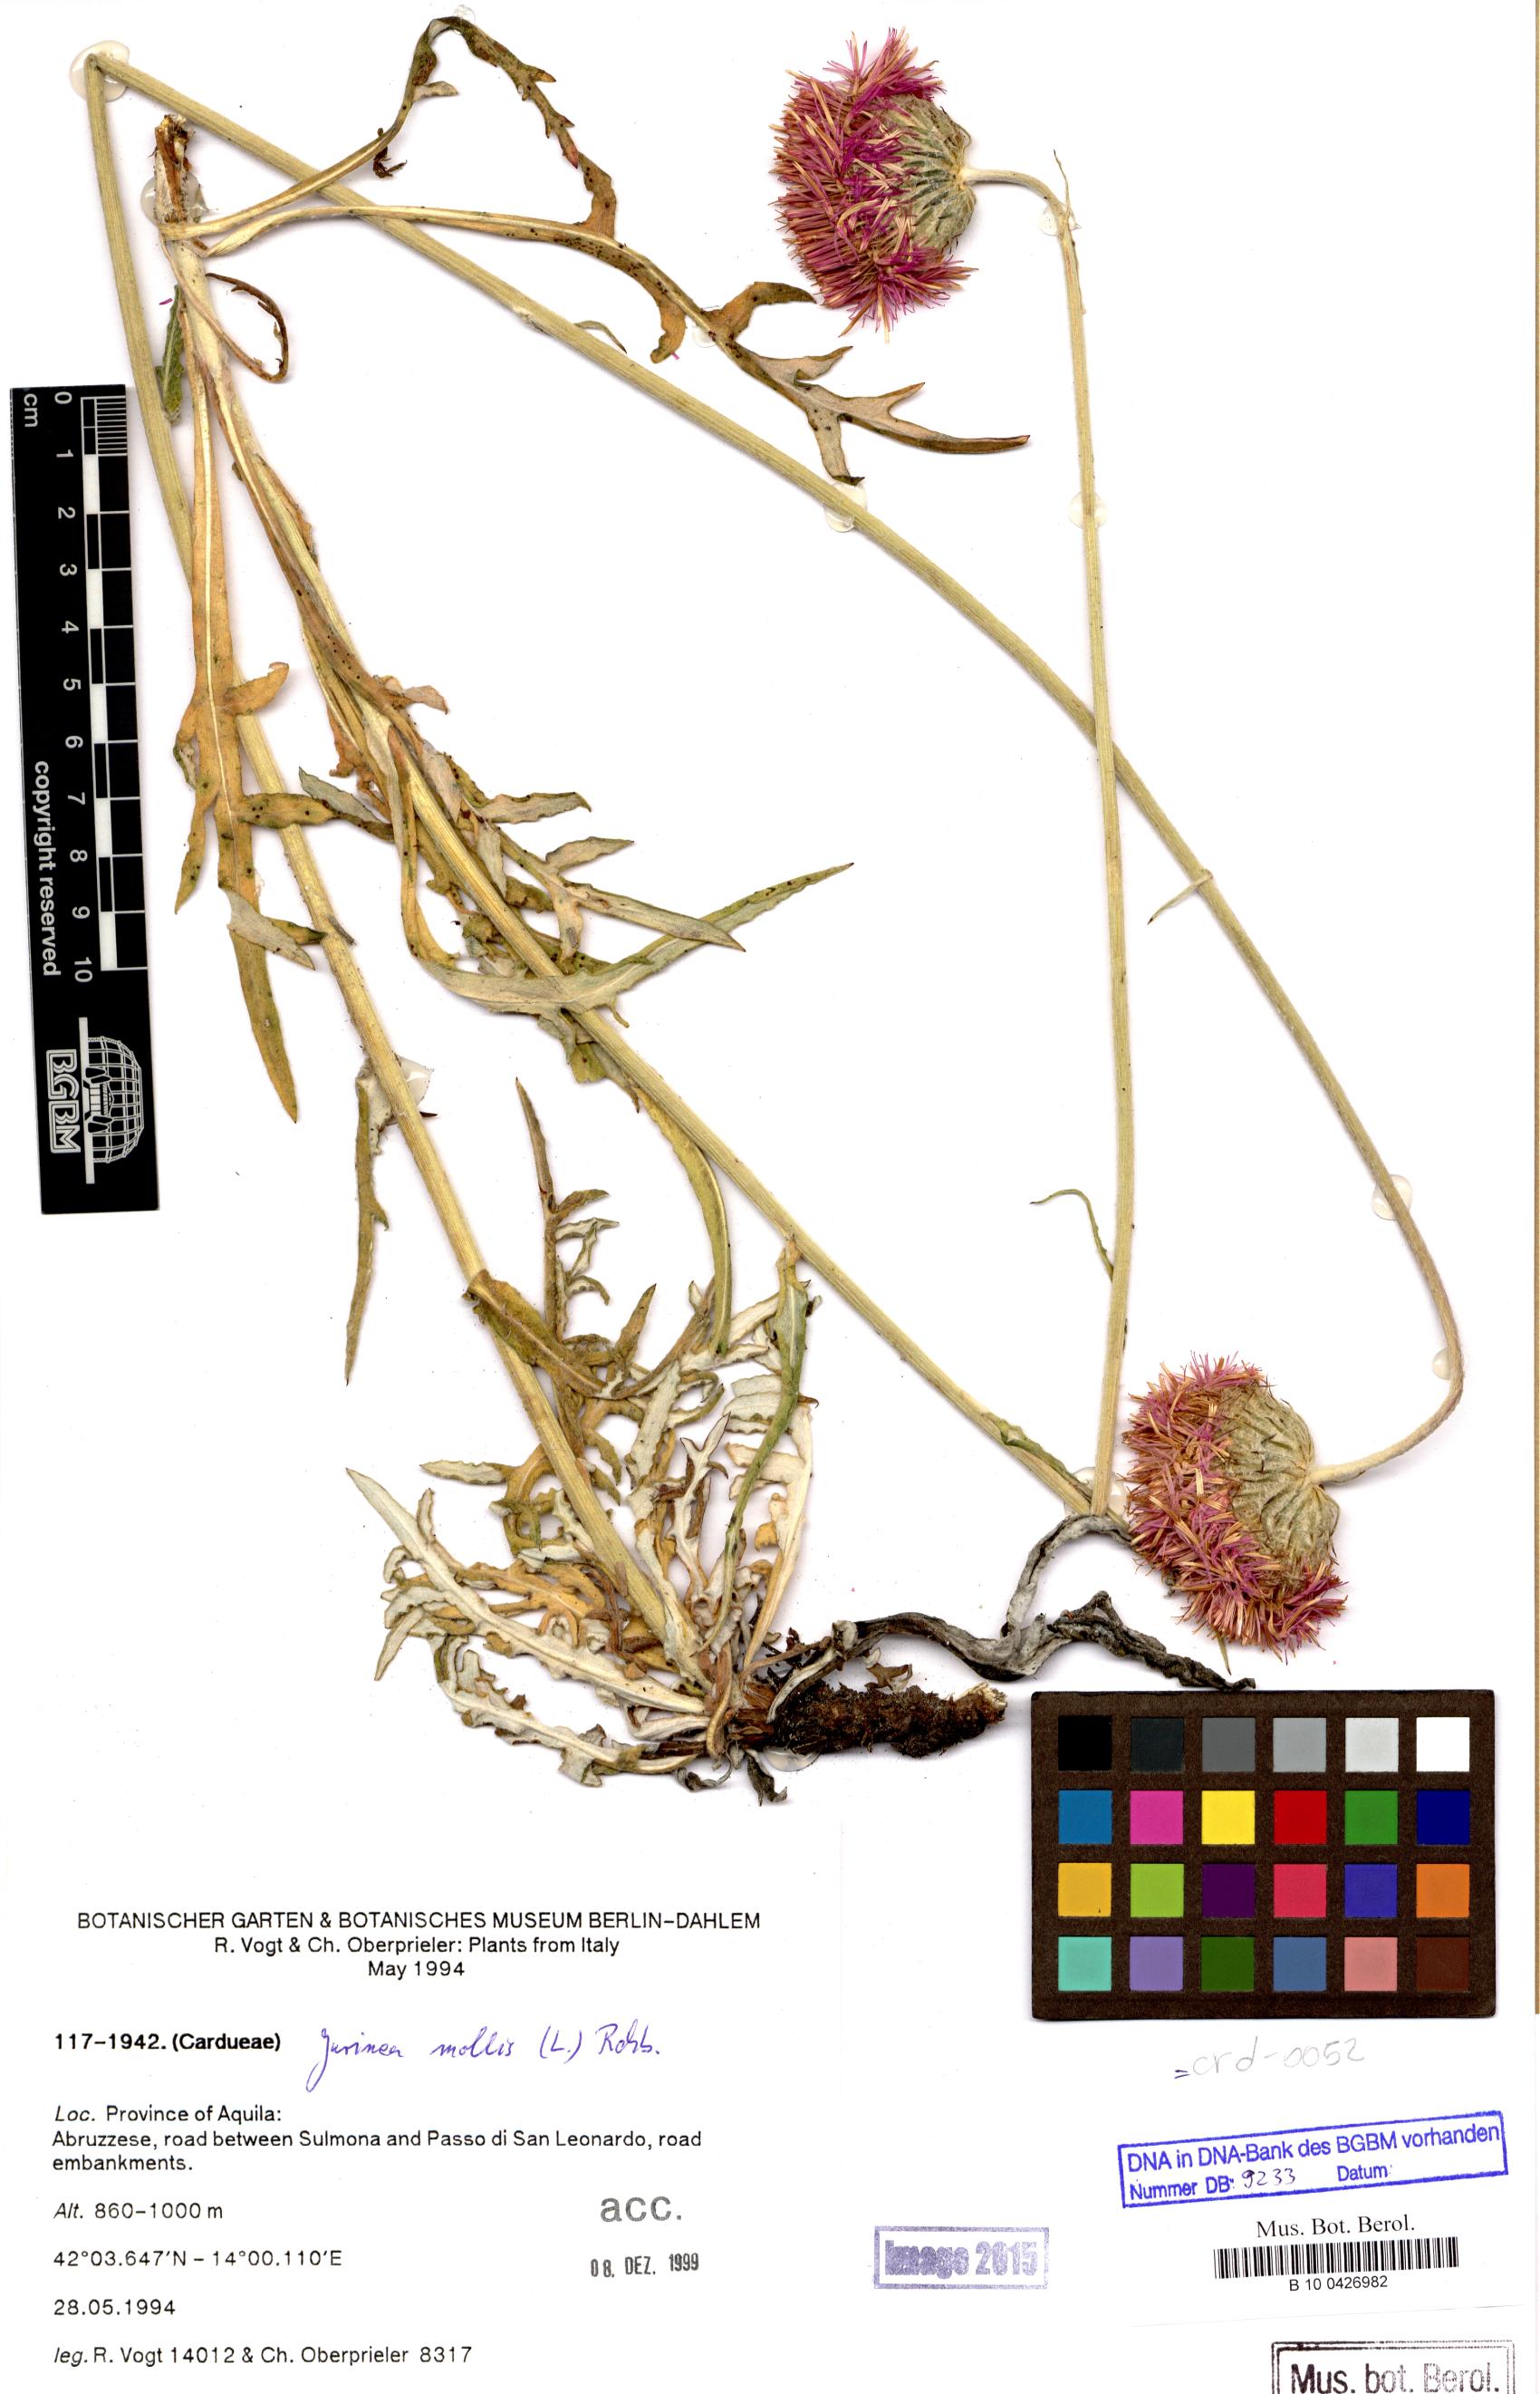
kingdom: Plantae
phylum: Tracheophyta
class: Magnoliopsida
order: Asterales
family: Asteraceae
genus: Jurinea
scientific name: Jurinea mollis
